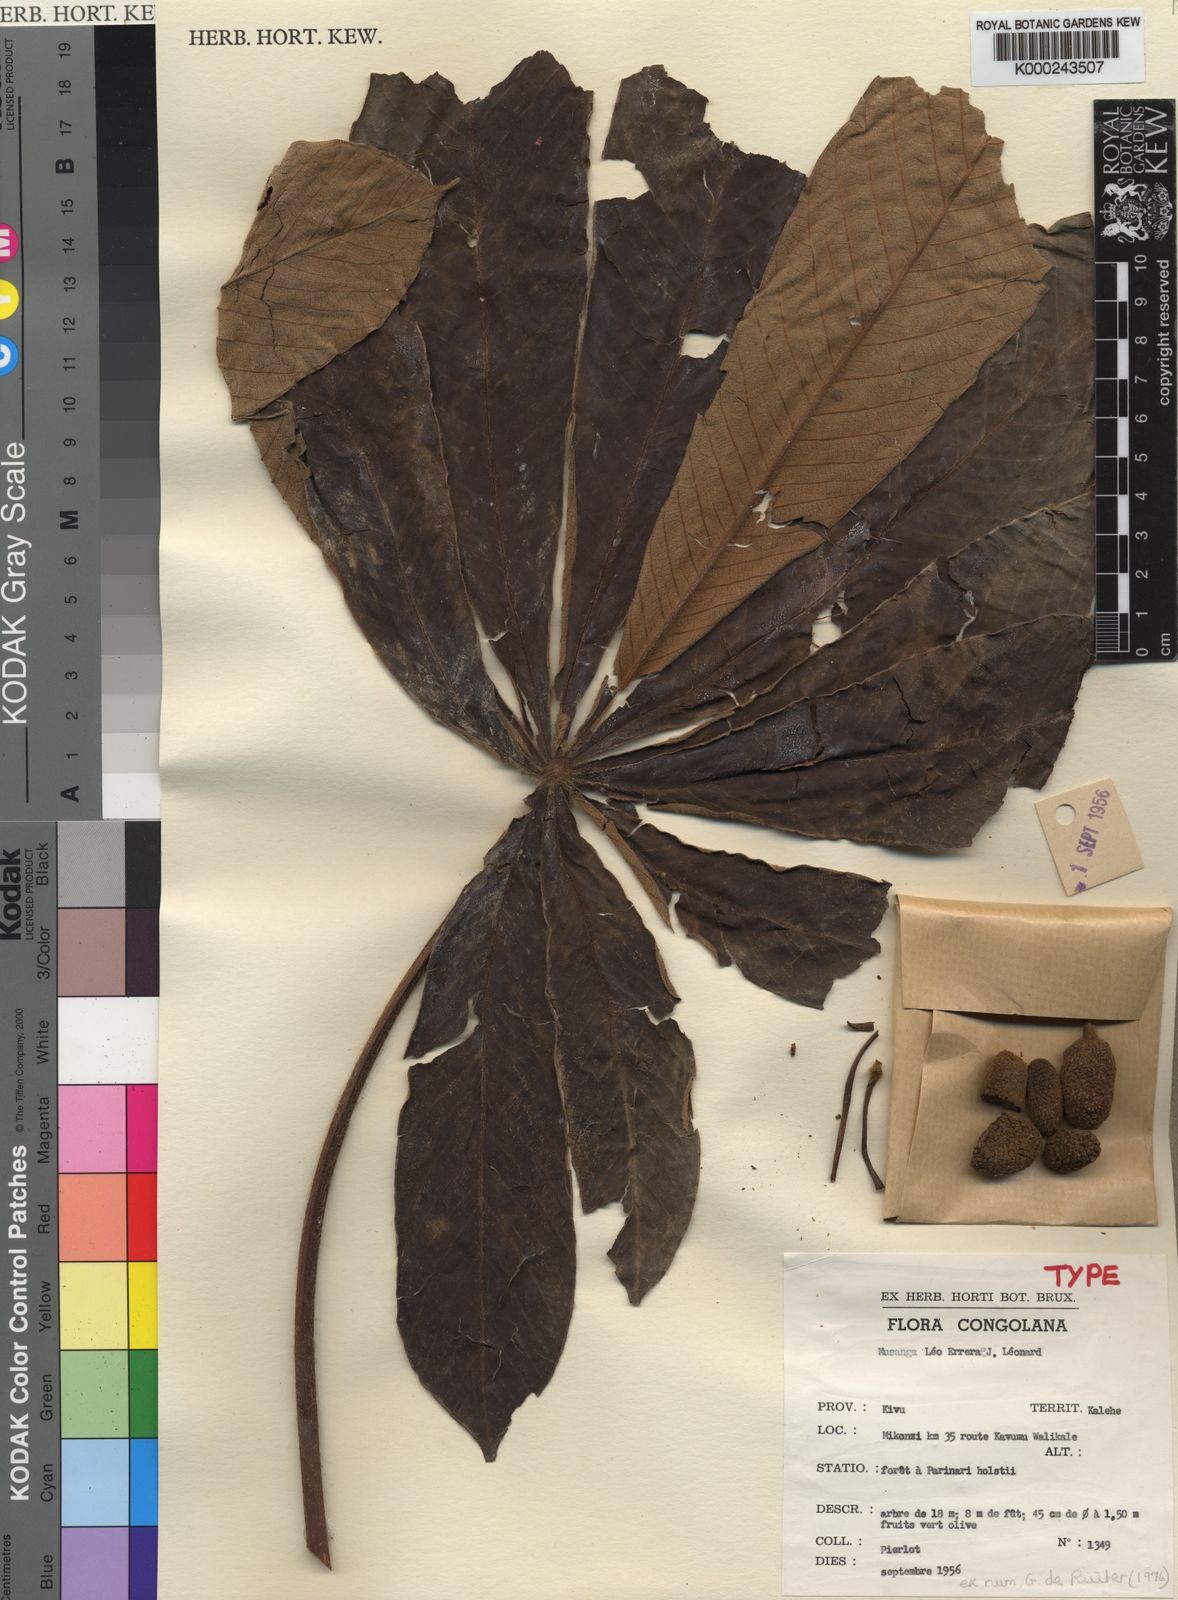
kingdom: Plantae
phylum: Tracheophyta
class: Magnoliopsida
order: Rosales
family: Urticaceae
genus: Musanga
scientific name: Musanga
